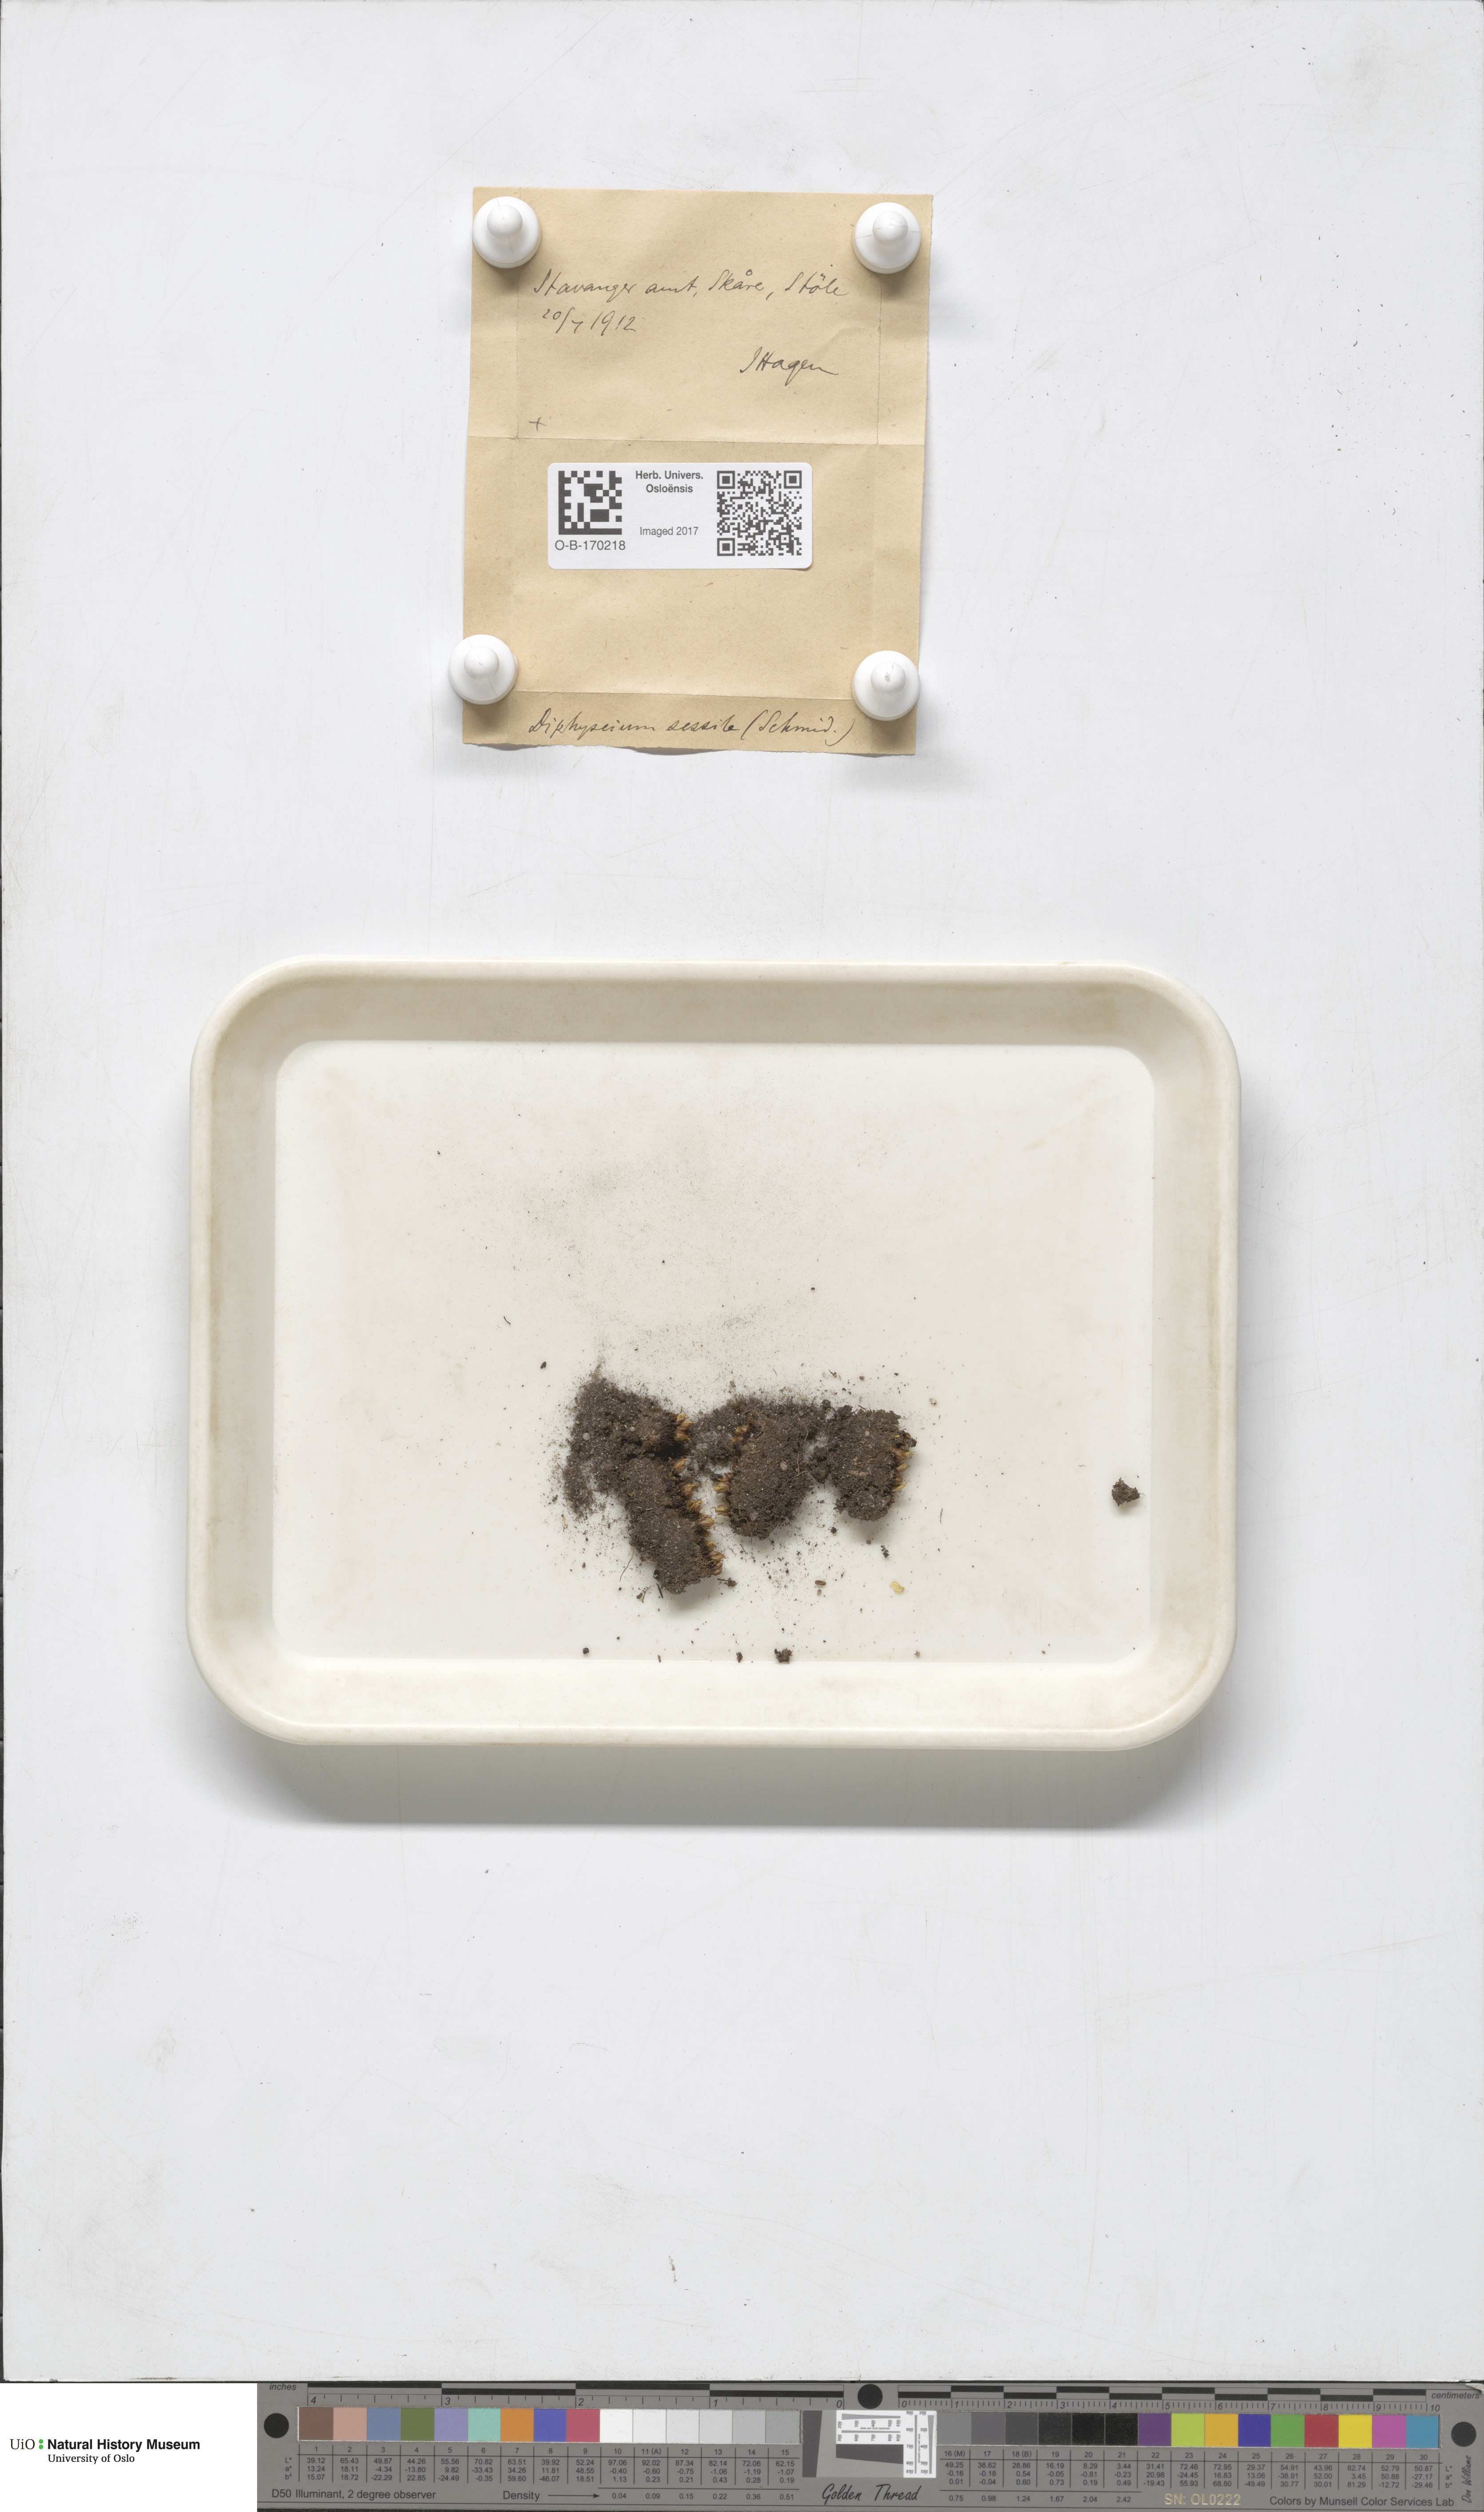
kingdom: Plantae
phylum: Bryophyta
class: Bryopsida
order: Diphysciales
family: Diphysciaceae
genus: Diphyscium
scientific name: Diphyscium foliosum
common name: Nut moss
